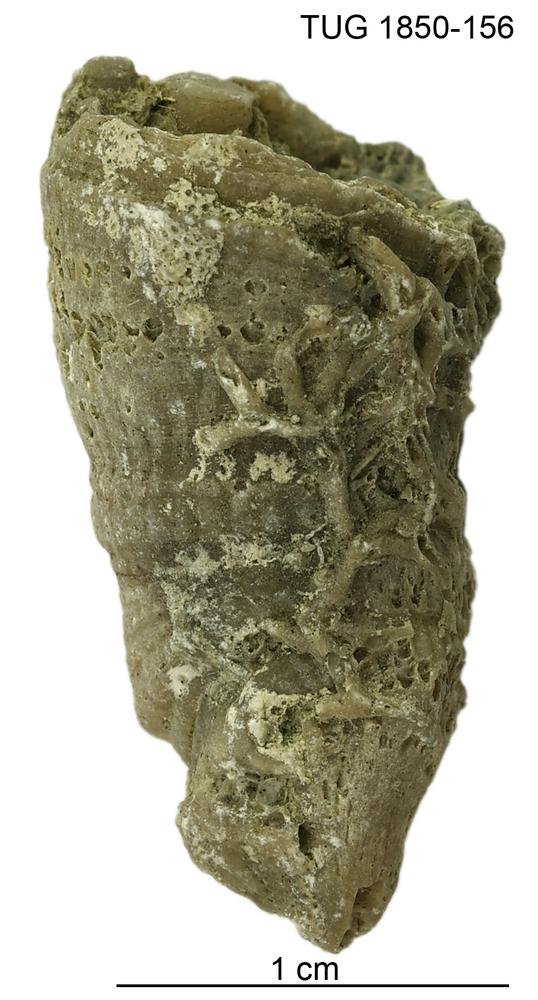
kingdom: Animalia
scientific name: Animalia
